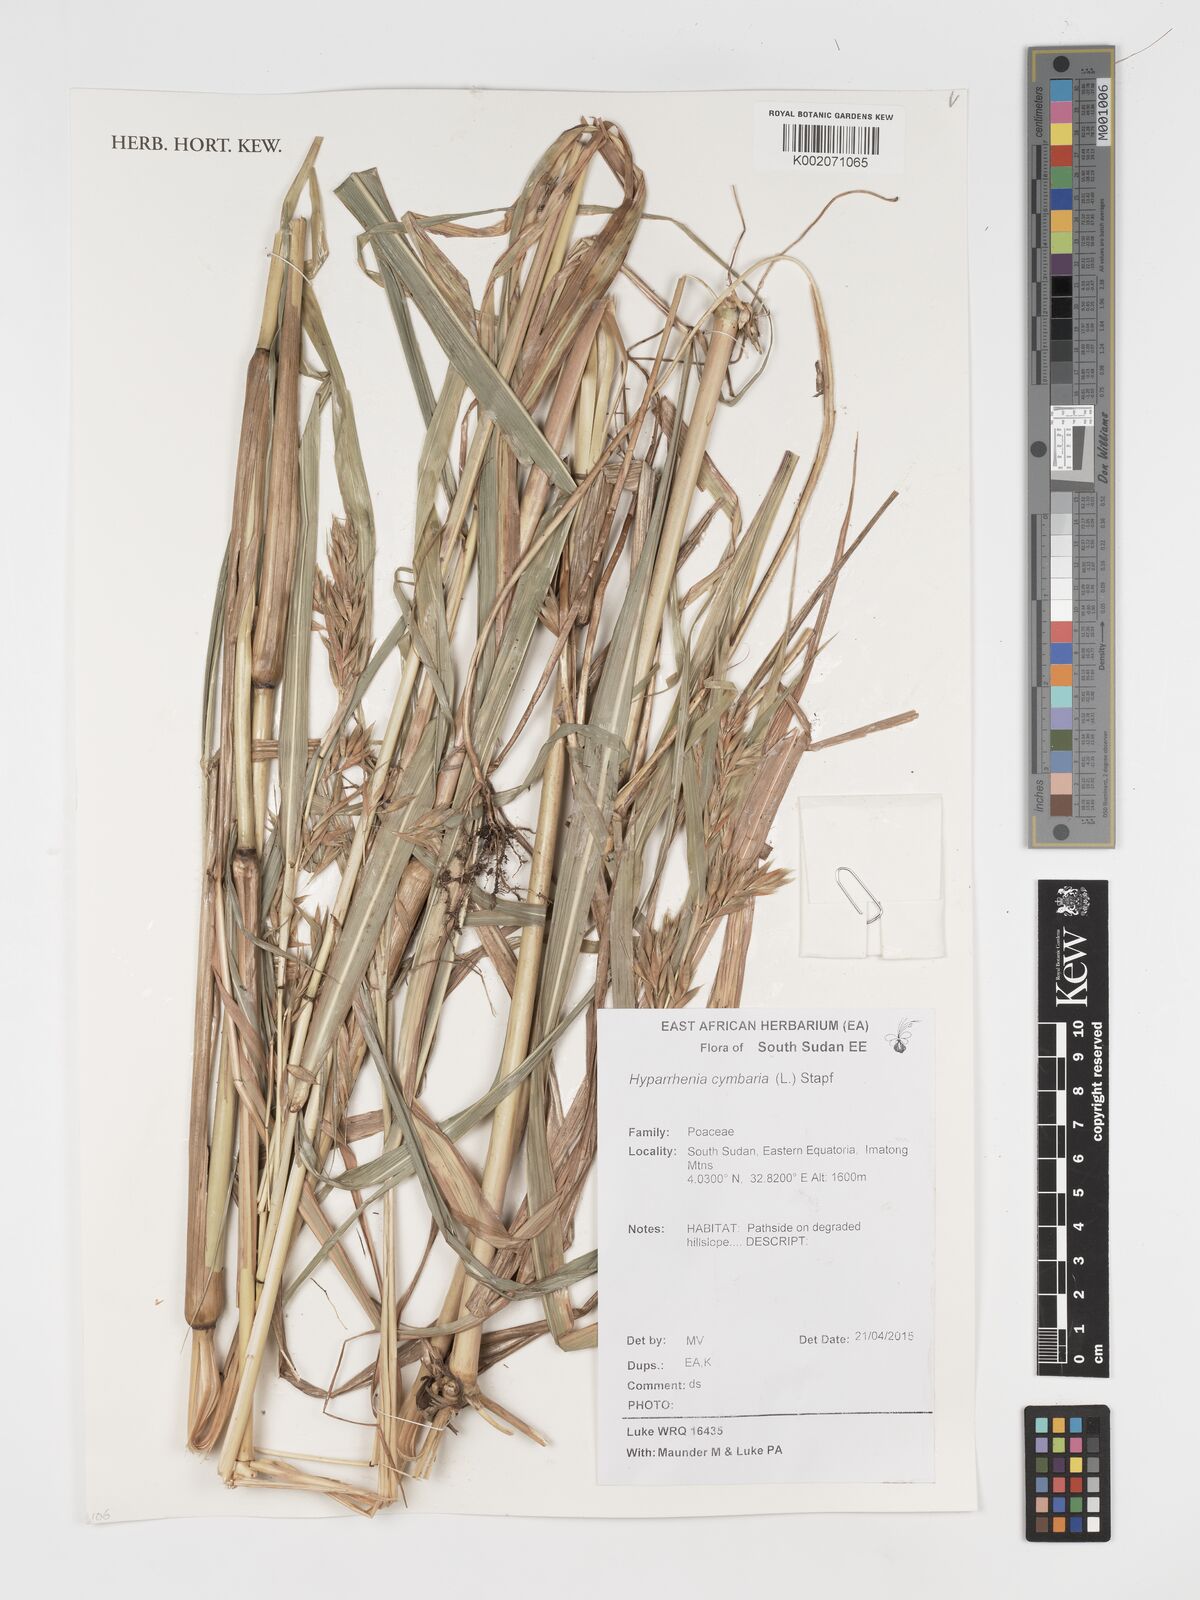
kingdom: Plantae
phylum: Tracheophyta
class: Liliopsida
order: Poales
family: Poaceae
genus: Hyparrhenia
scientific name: Hyparrhenia cymbaria
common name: Boat thatching grass
